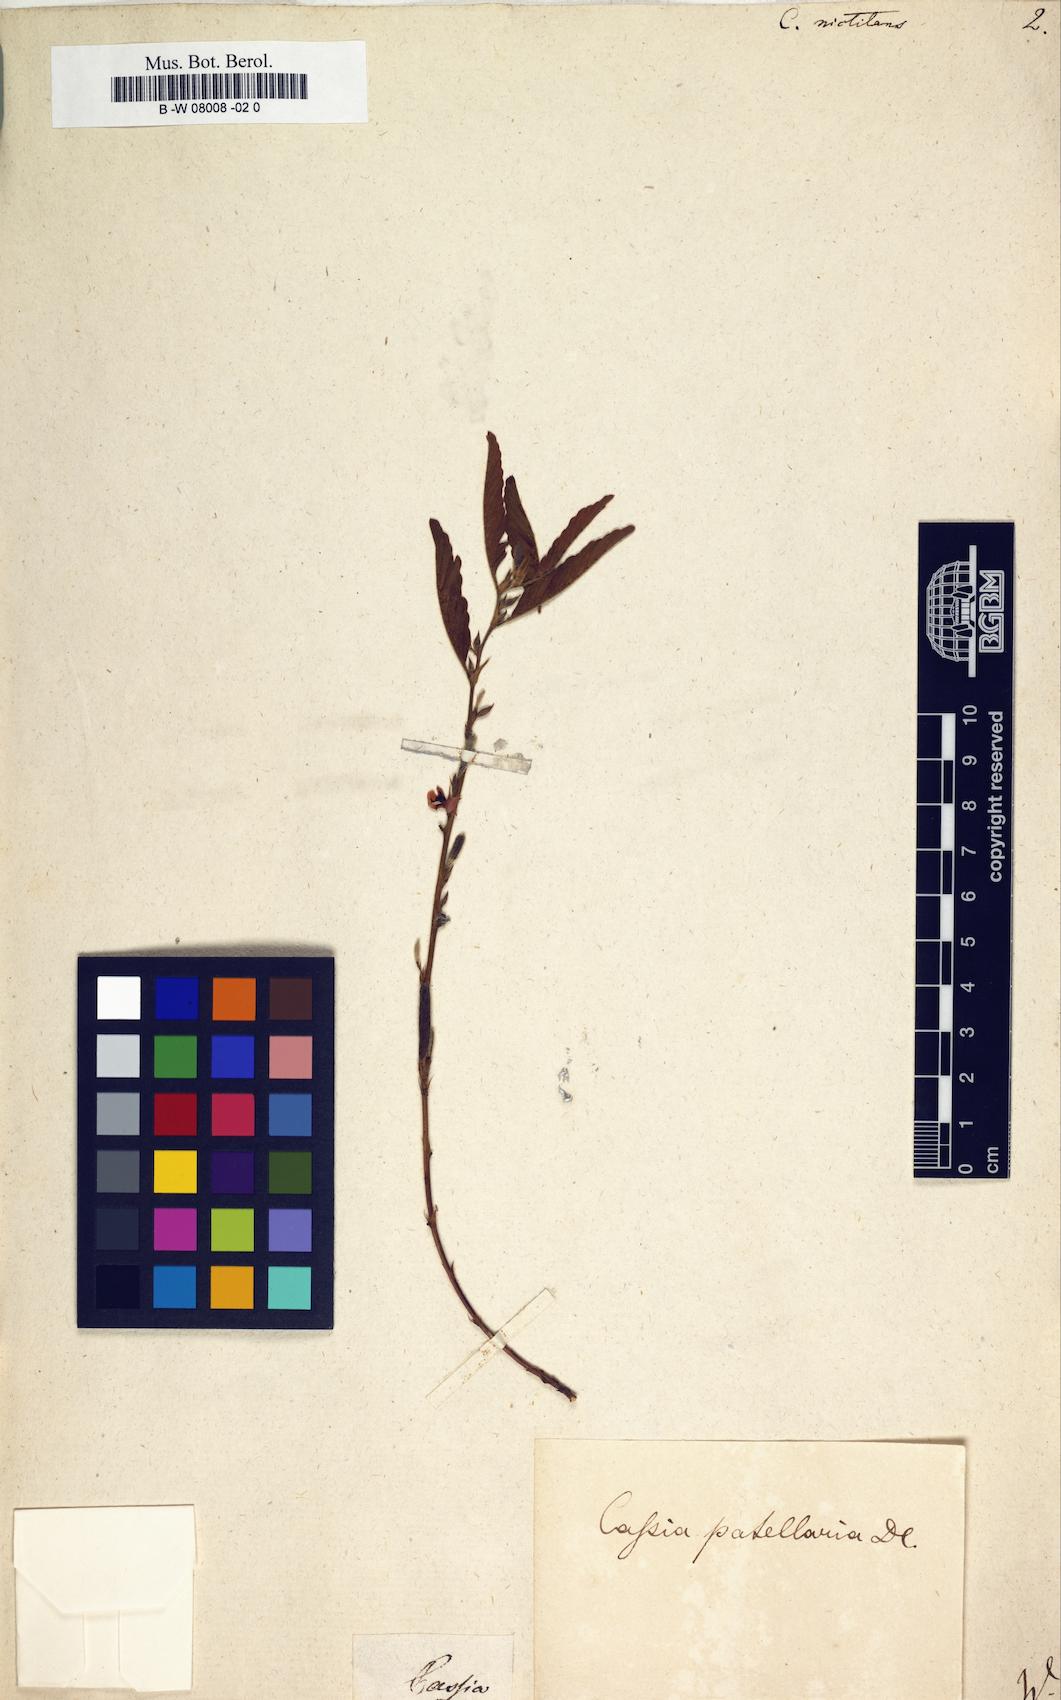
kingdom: Plantae
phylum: Tracheophyta
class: Magnoliopsida
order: Fabales
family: Fabaceae
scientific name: Fabaceae
